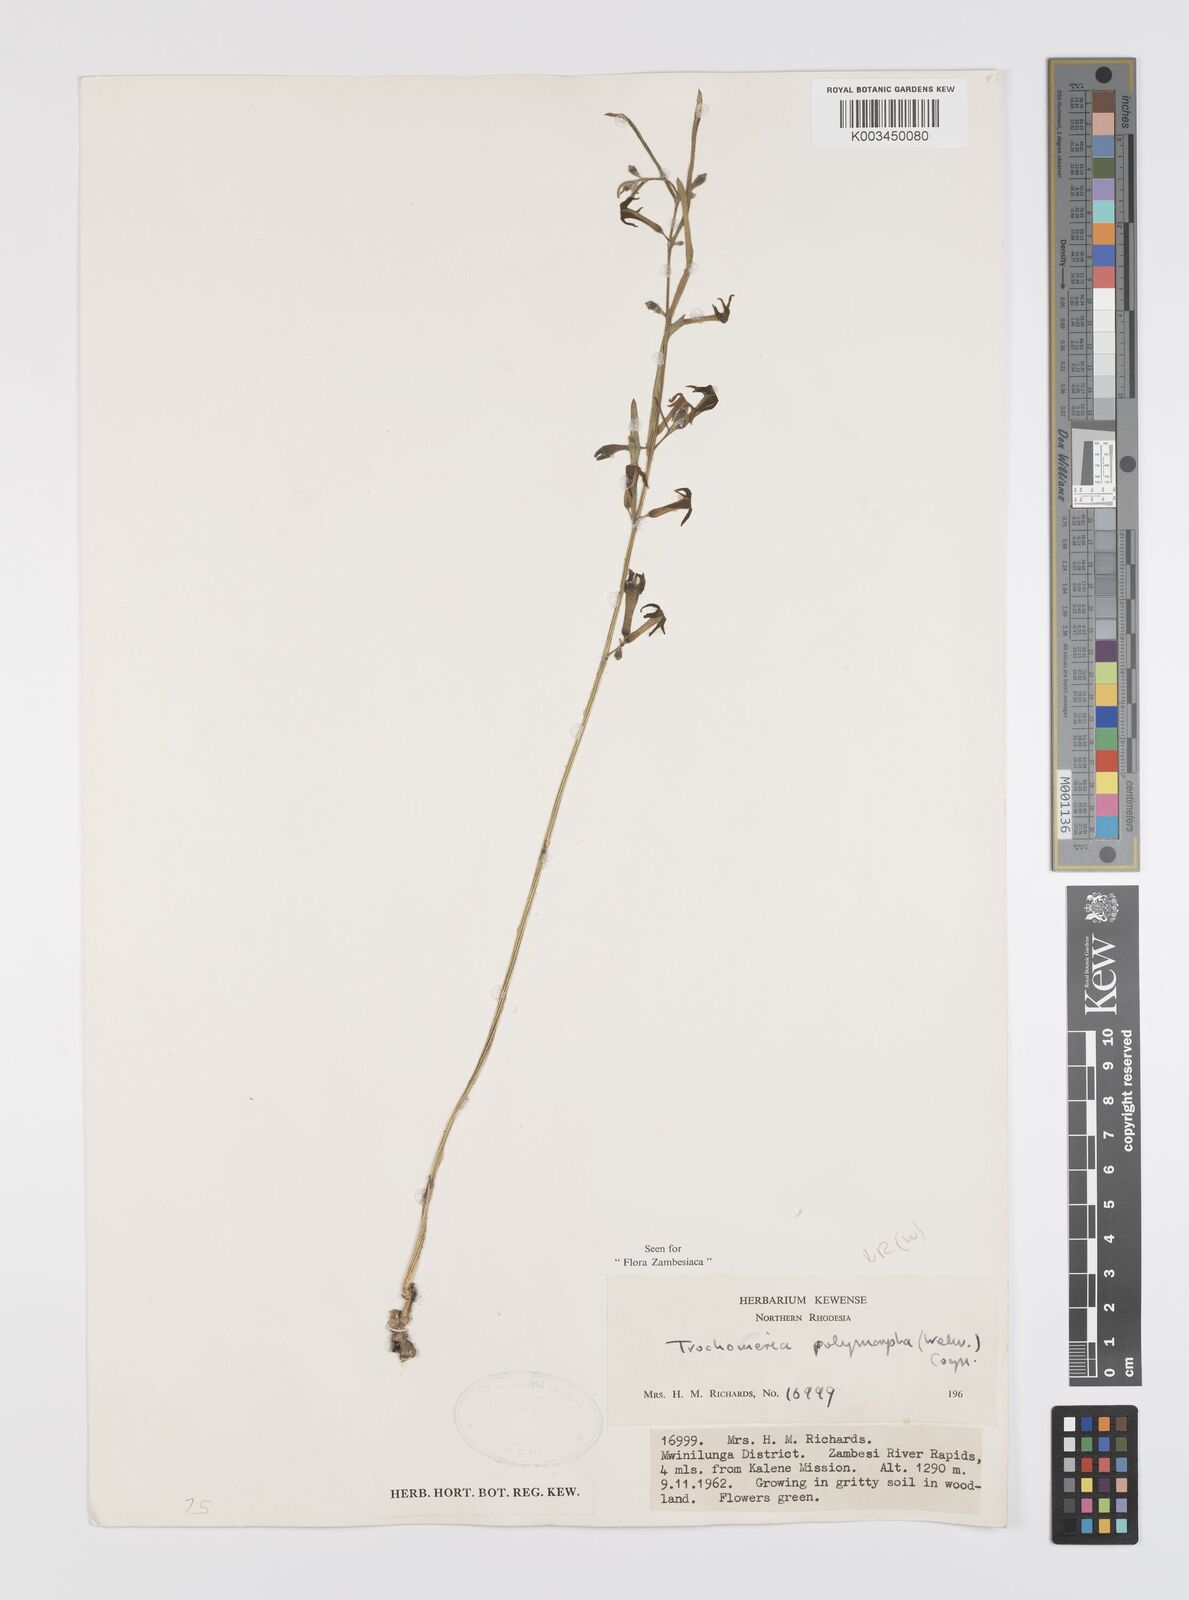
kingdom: Plantae
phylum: Tracheophyta
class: Magnoliopsida
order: Cucurbitales
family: Cucurbitaceae
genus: Trochomeria
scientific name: Trochomeria polymorpha
